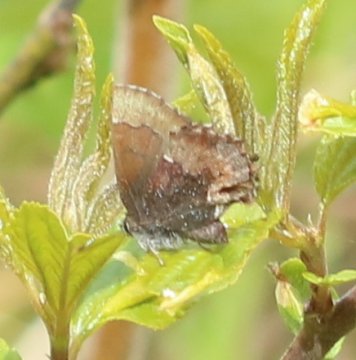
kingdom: Animalia
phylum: Arthropoda
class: Insecta
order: Lepidoptera
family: Lycaenidae
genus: Incisalia
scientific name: Incisalia henrici
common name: Henry's Elfin
